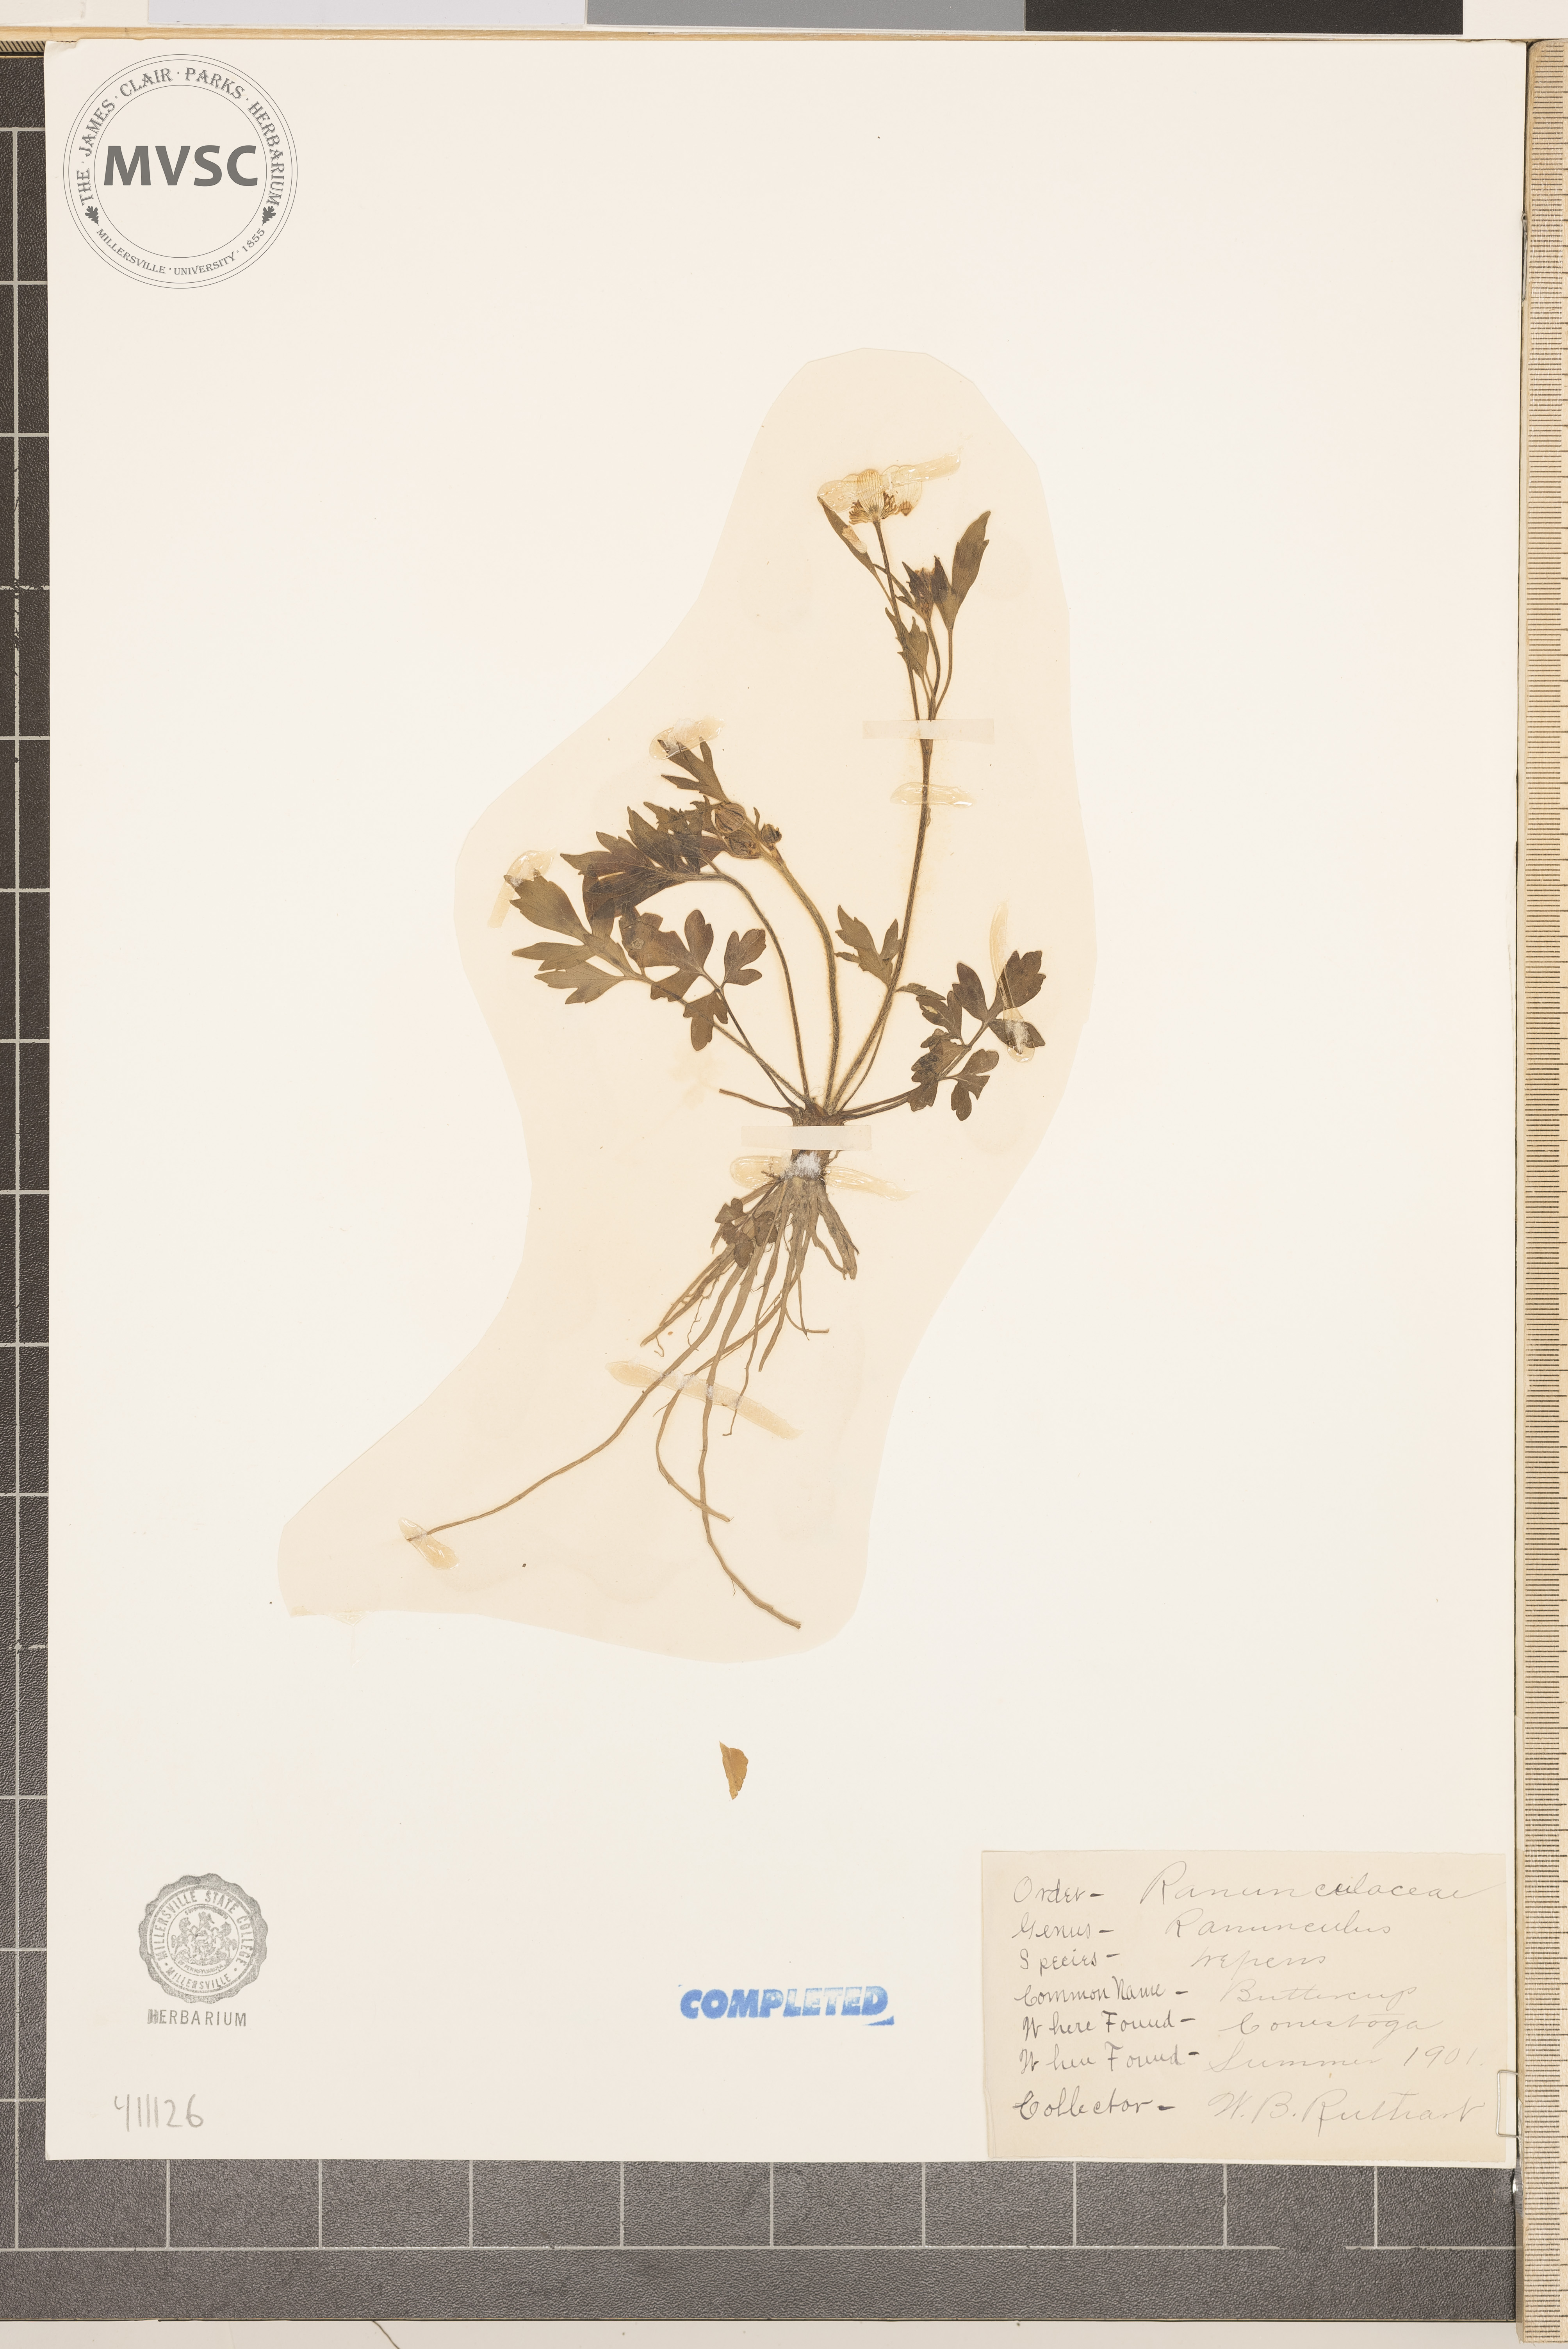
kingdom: Plantae
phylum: Tracheophyta
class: Magnoliopsida
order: Ranunculales
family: Ranunculaceae
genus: Ranunculus
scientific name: Ranunculus repens
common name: creeping buttercup
